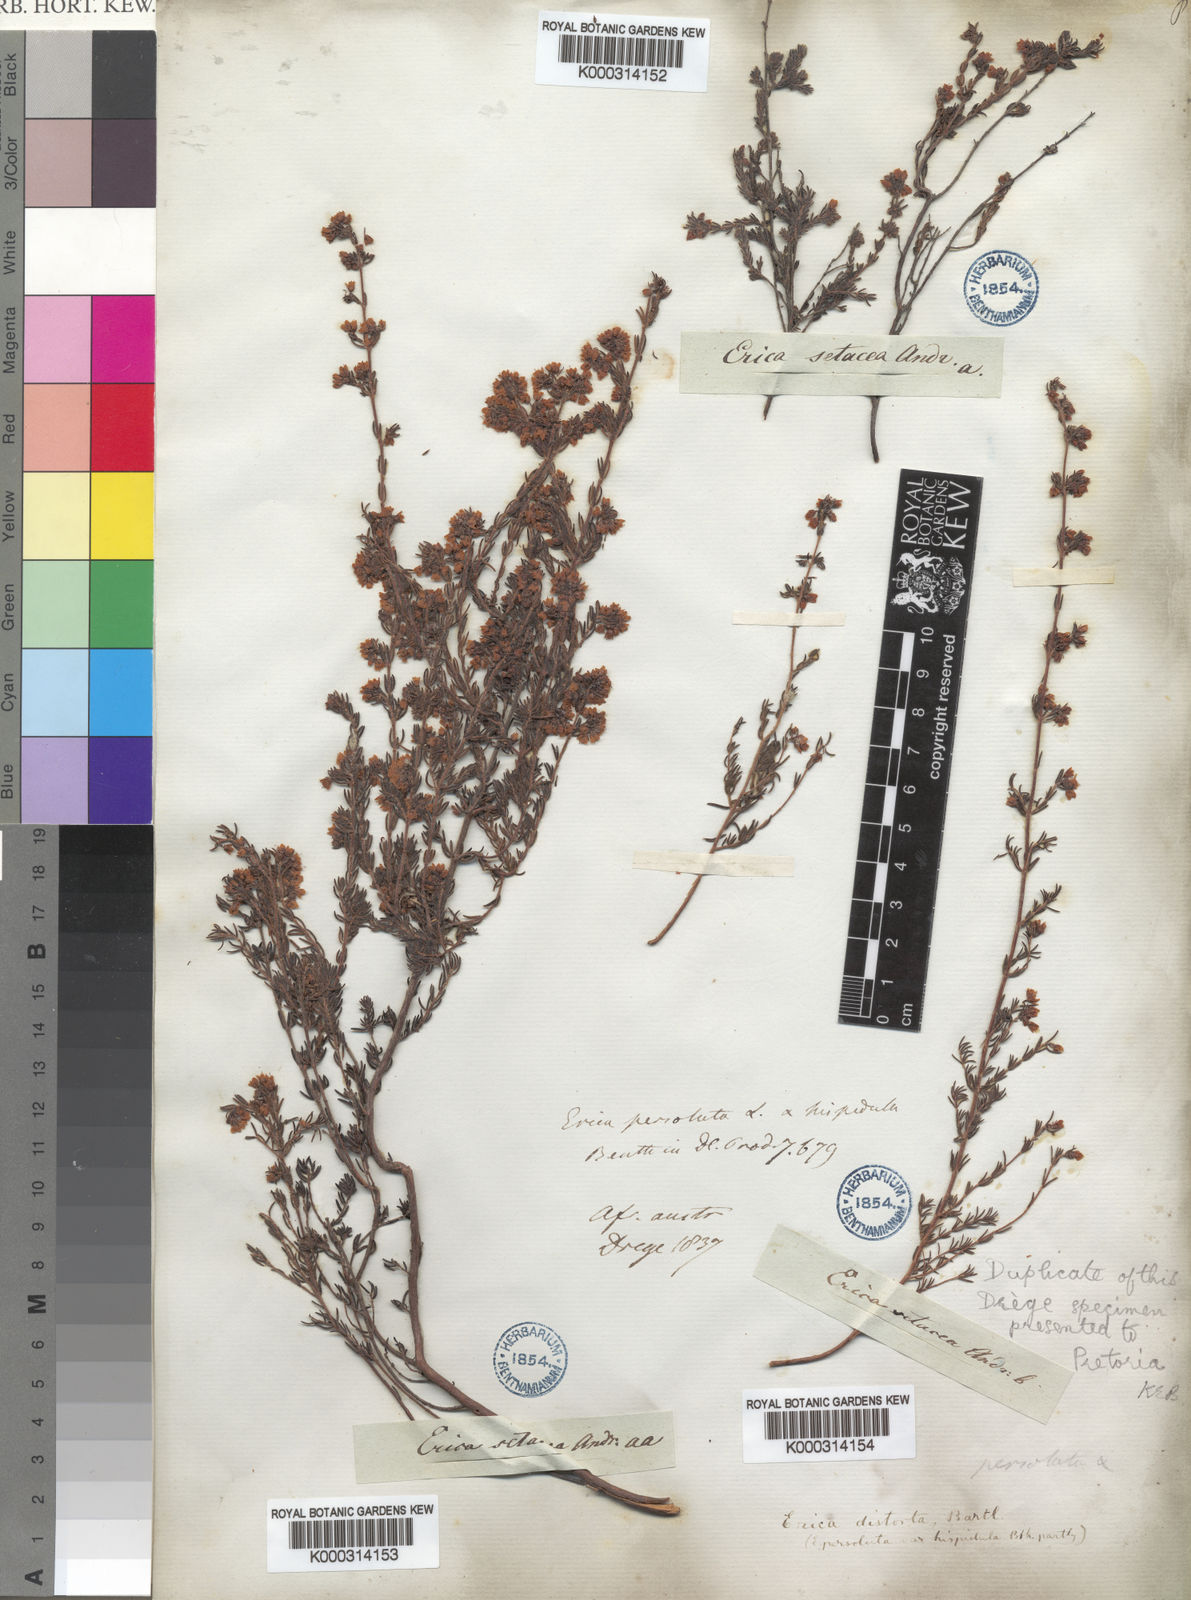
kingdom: Plantae
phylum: Tracheophyta
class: Magnoliopsida
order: Ericales
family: Ericaceae
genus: Erica
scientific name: Erica distorta
